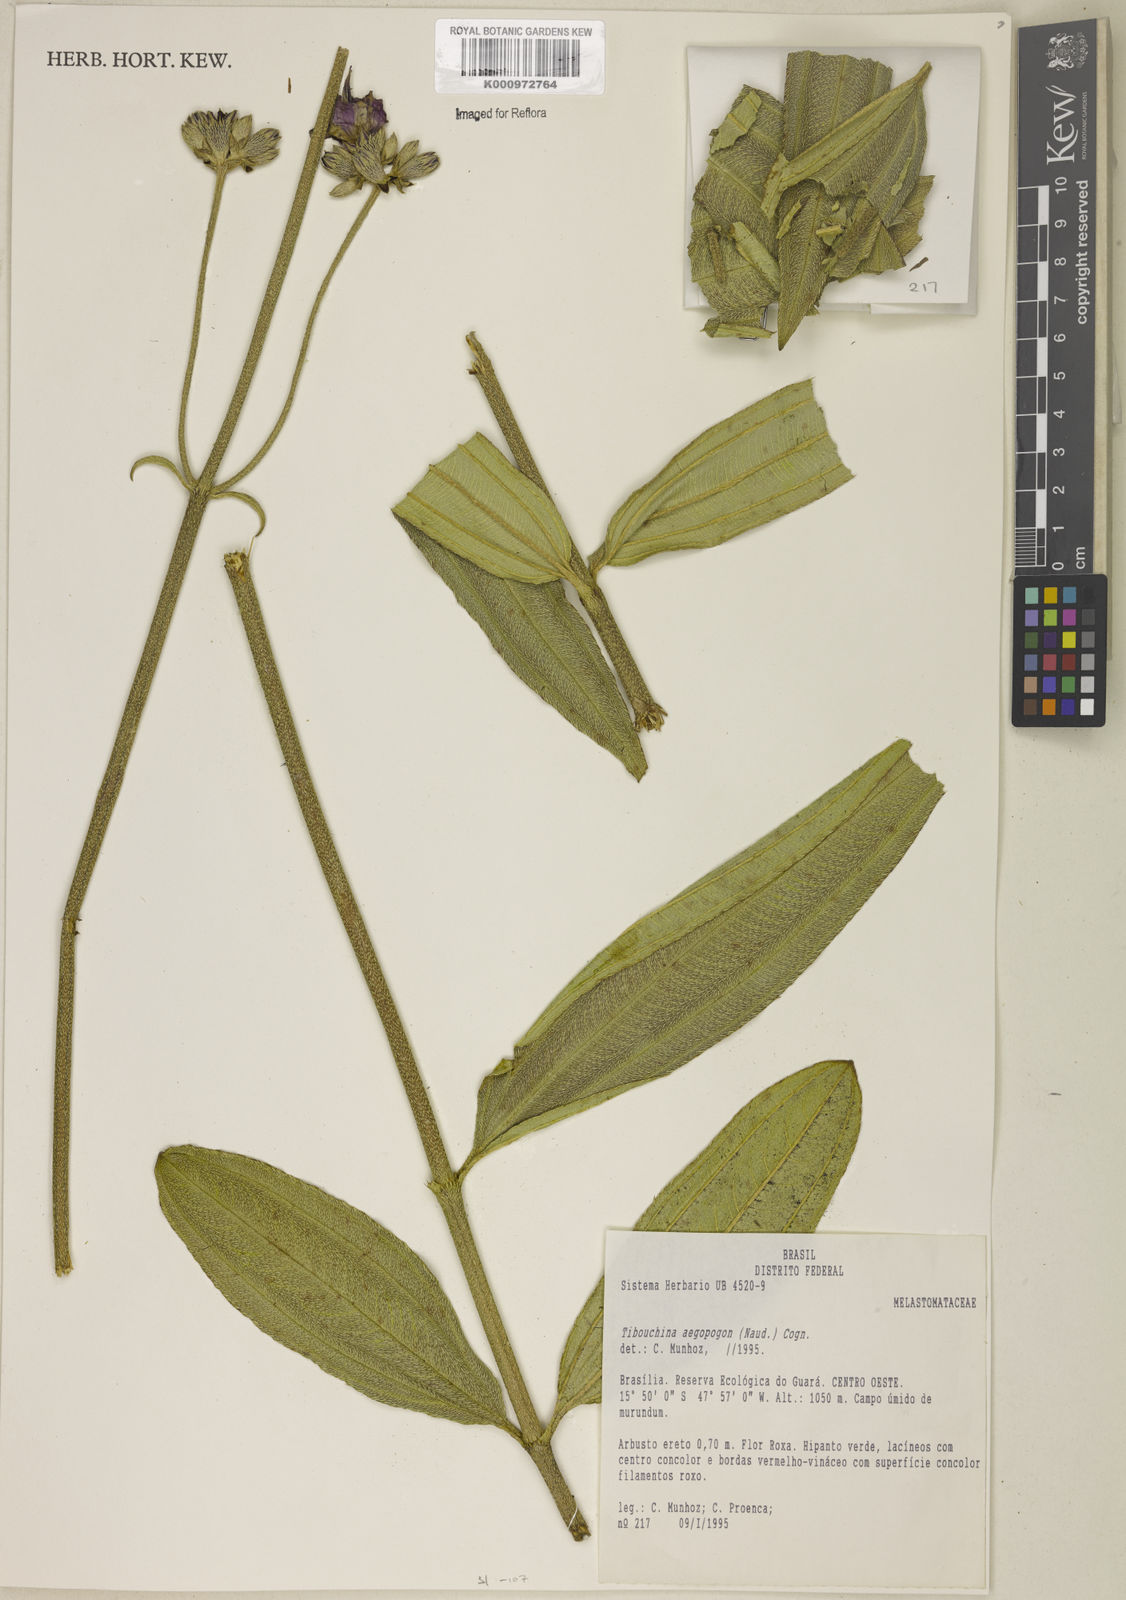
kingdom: Plantae
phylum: Tracheophyta
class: Magnoliopsida
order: Myrtales
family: Melastomataceae
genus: Pleroma
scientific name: Pleroma aegopogon
